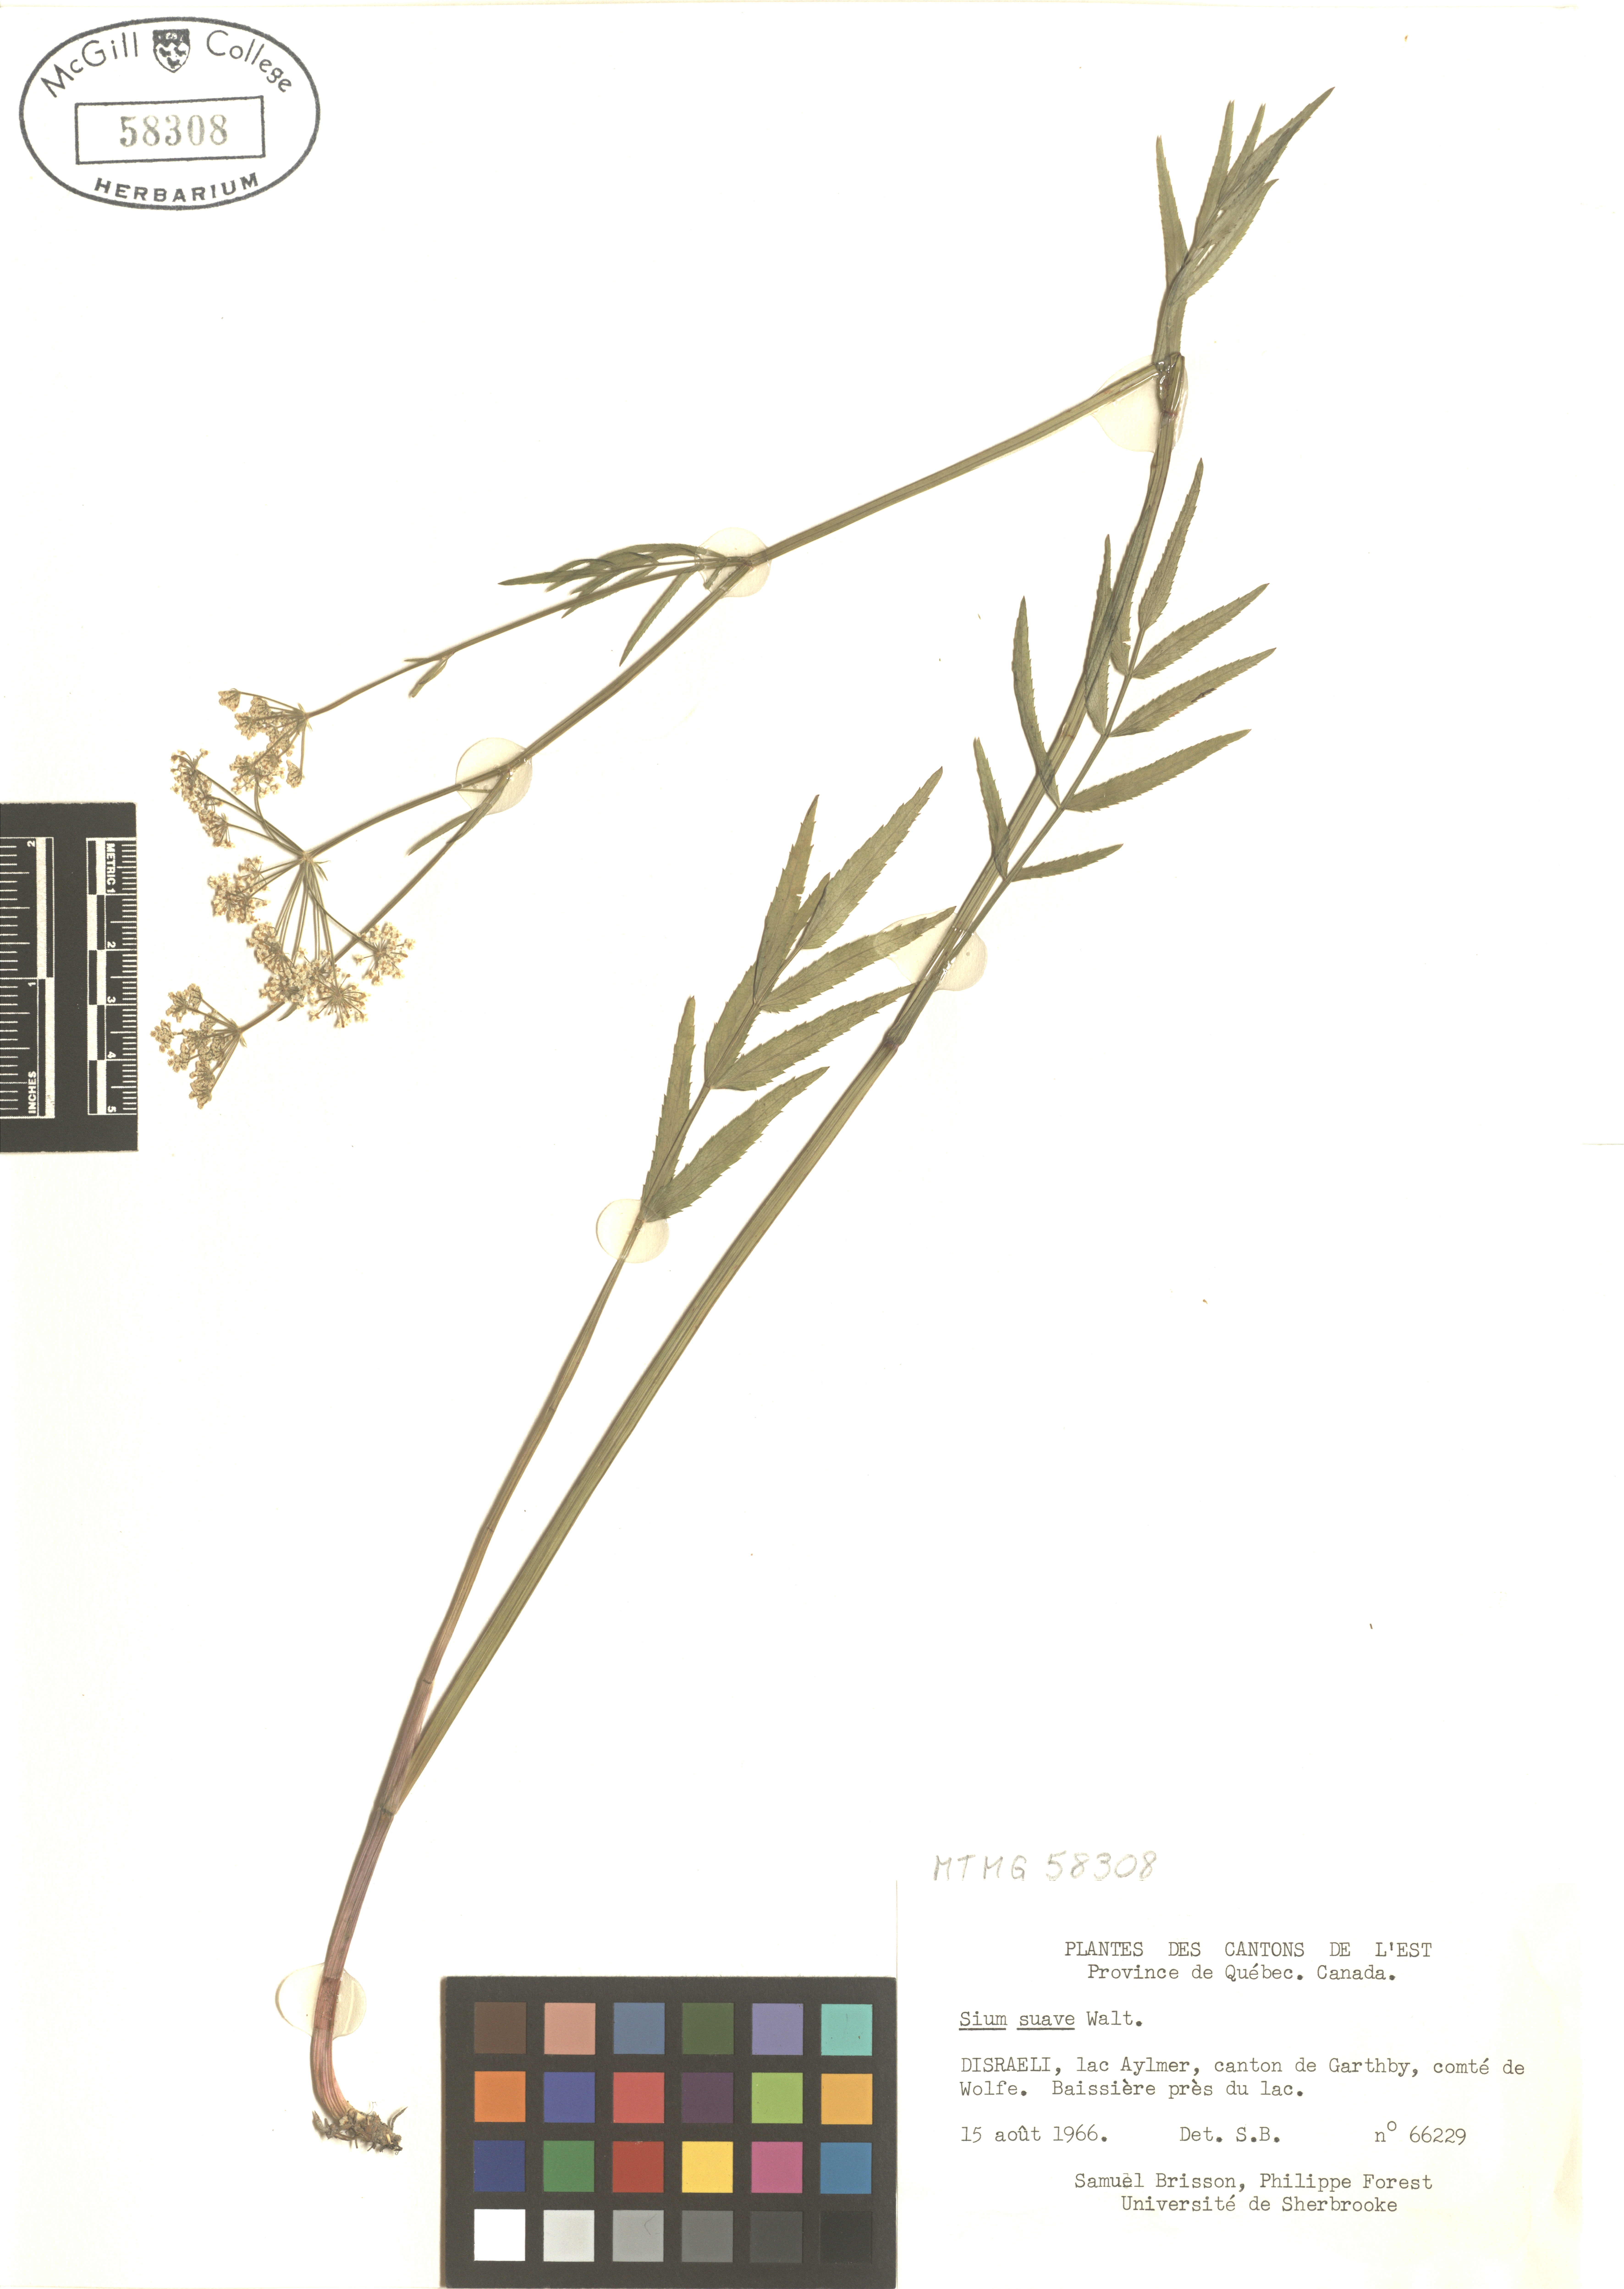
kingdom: Plantae
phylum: Tracheophyta
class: Magnoliopsida
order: Apiales
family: Apiaceae
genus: Sium
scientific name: Sium suave
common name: Hemlock water-parsnip
